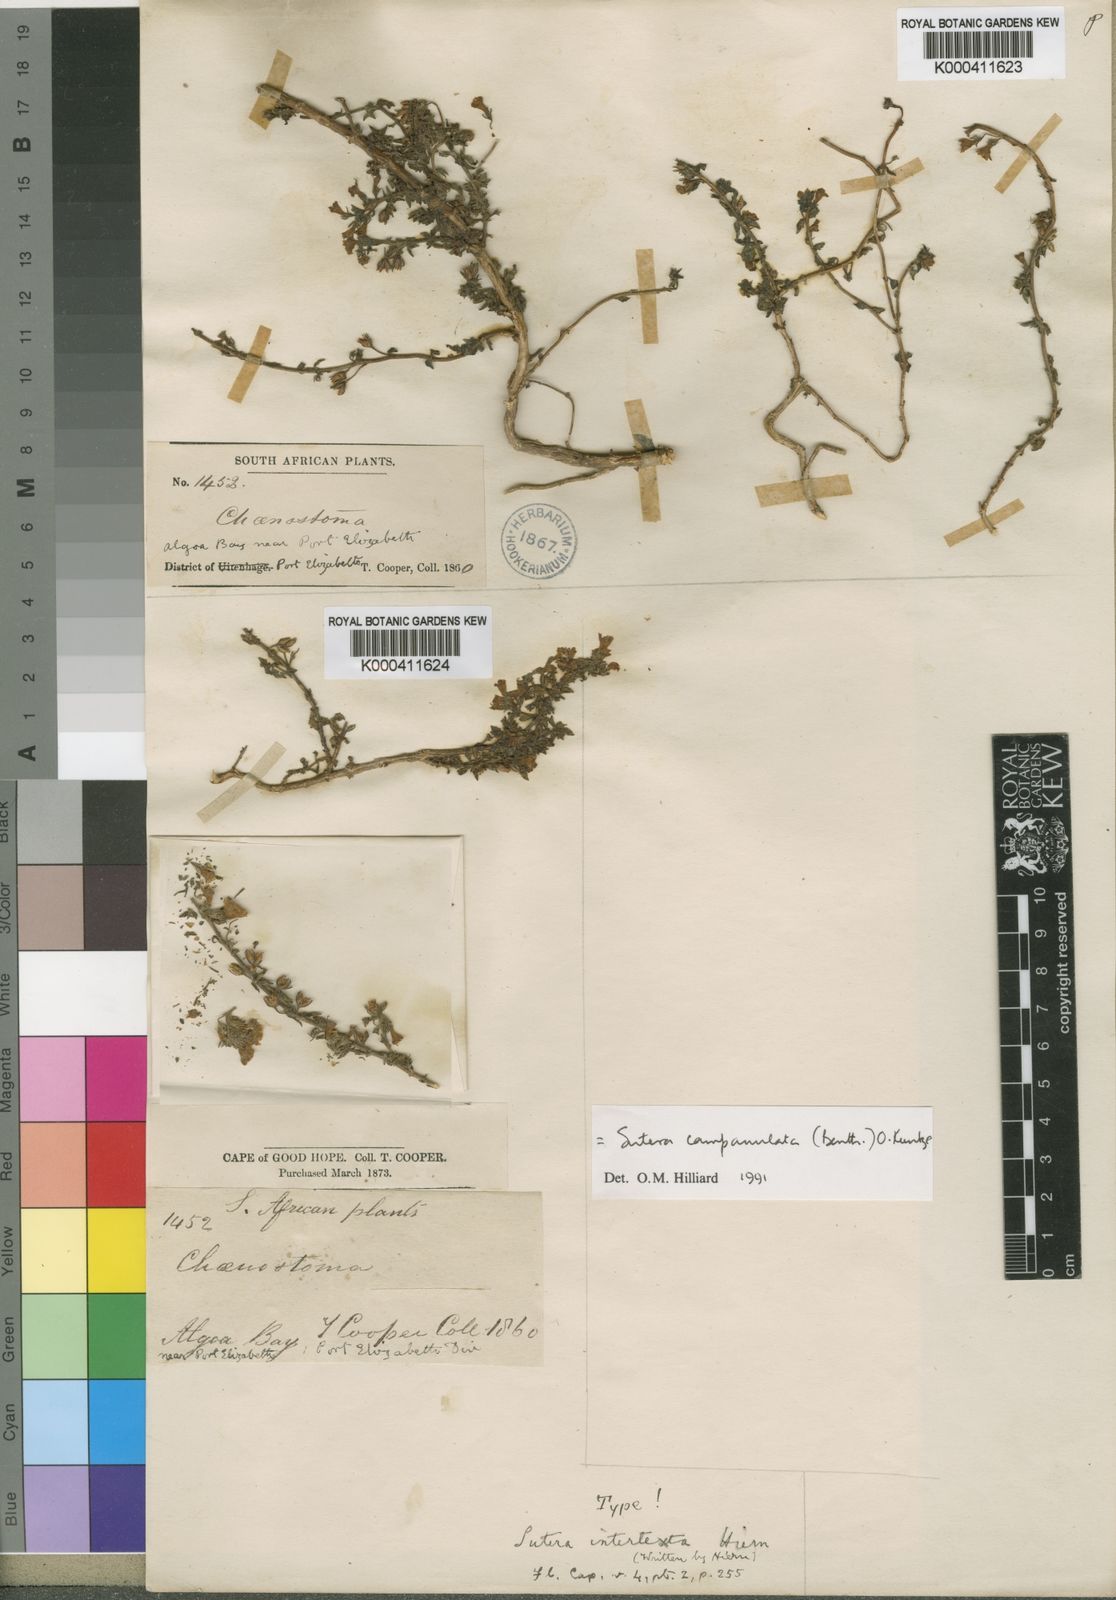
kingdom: Plantae
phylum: Tracheophyta
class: Magnoliopsida
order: Lamiales
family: Scrophulariaceae
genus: Chaenostoma
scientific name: Chaenostoma campanulatum
